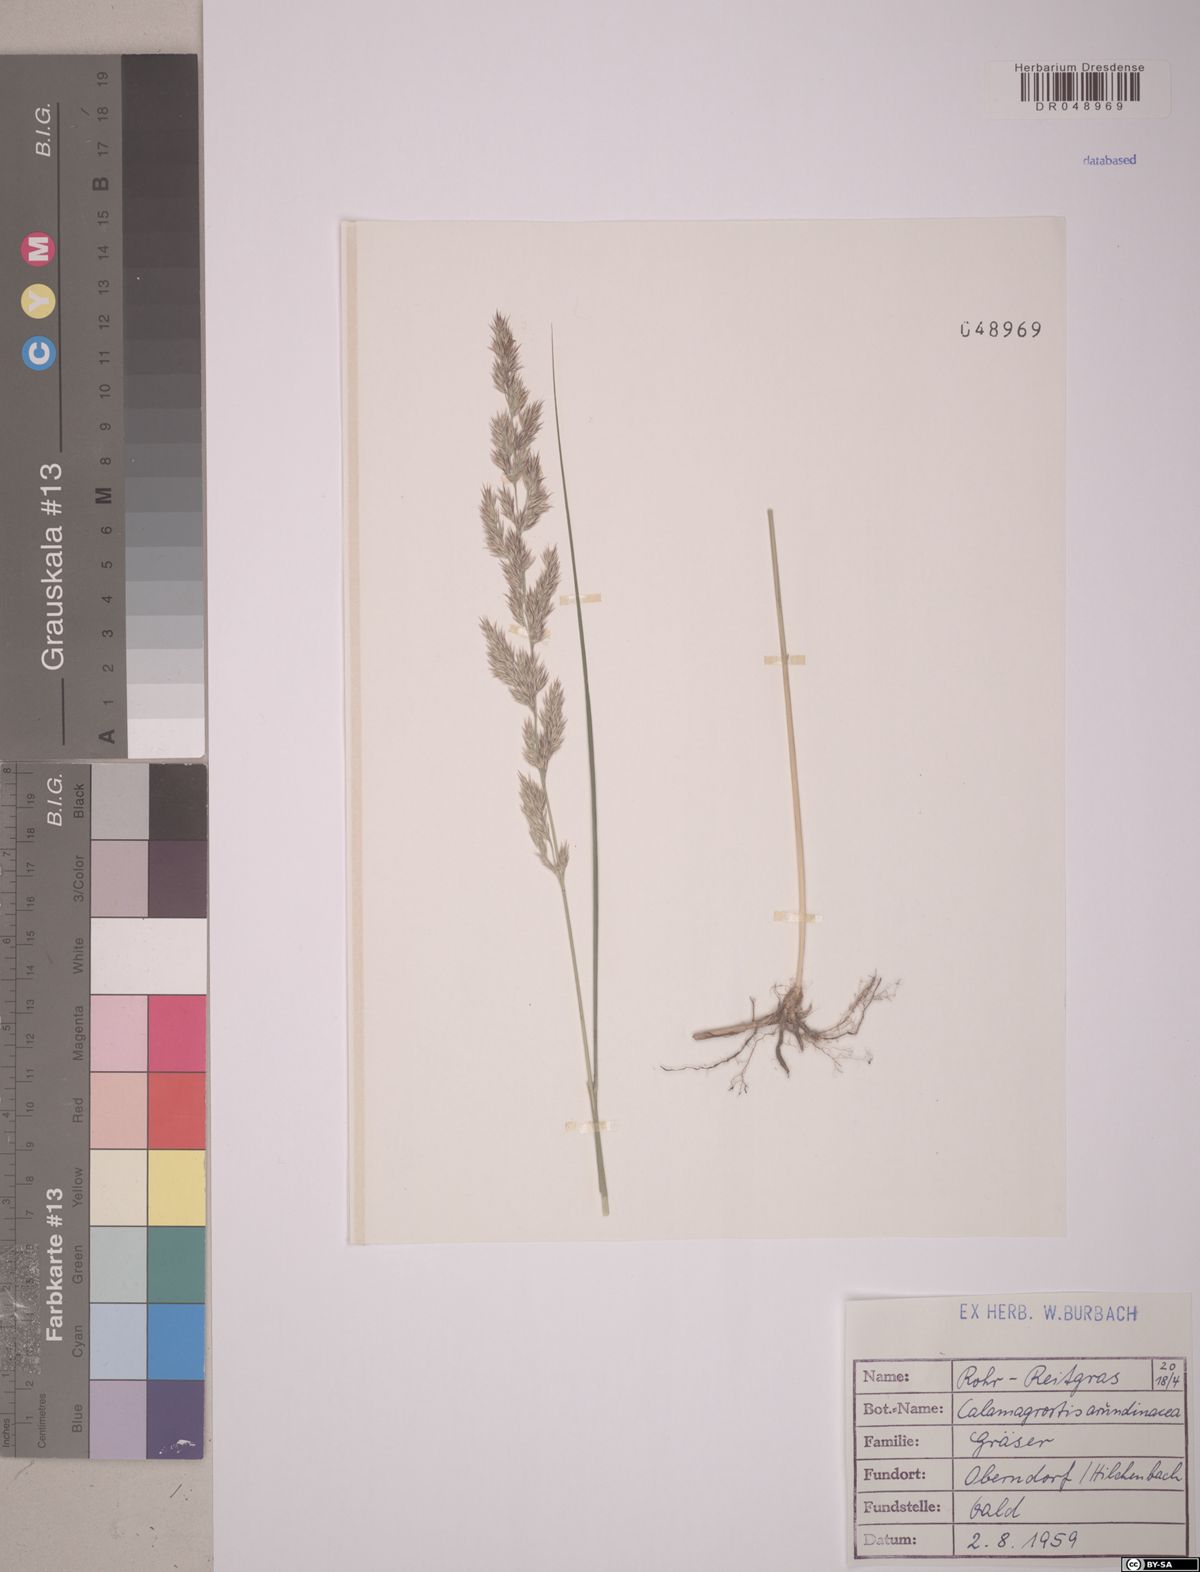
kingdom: Plantae
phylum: Tracheophyta
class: Liliopsida
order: Poales
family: Poaceae
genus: Calamagrostis
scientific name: Calamagrostis arundinacea
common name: Metskastik
